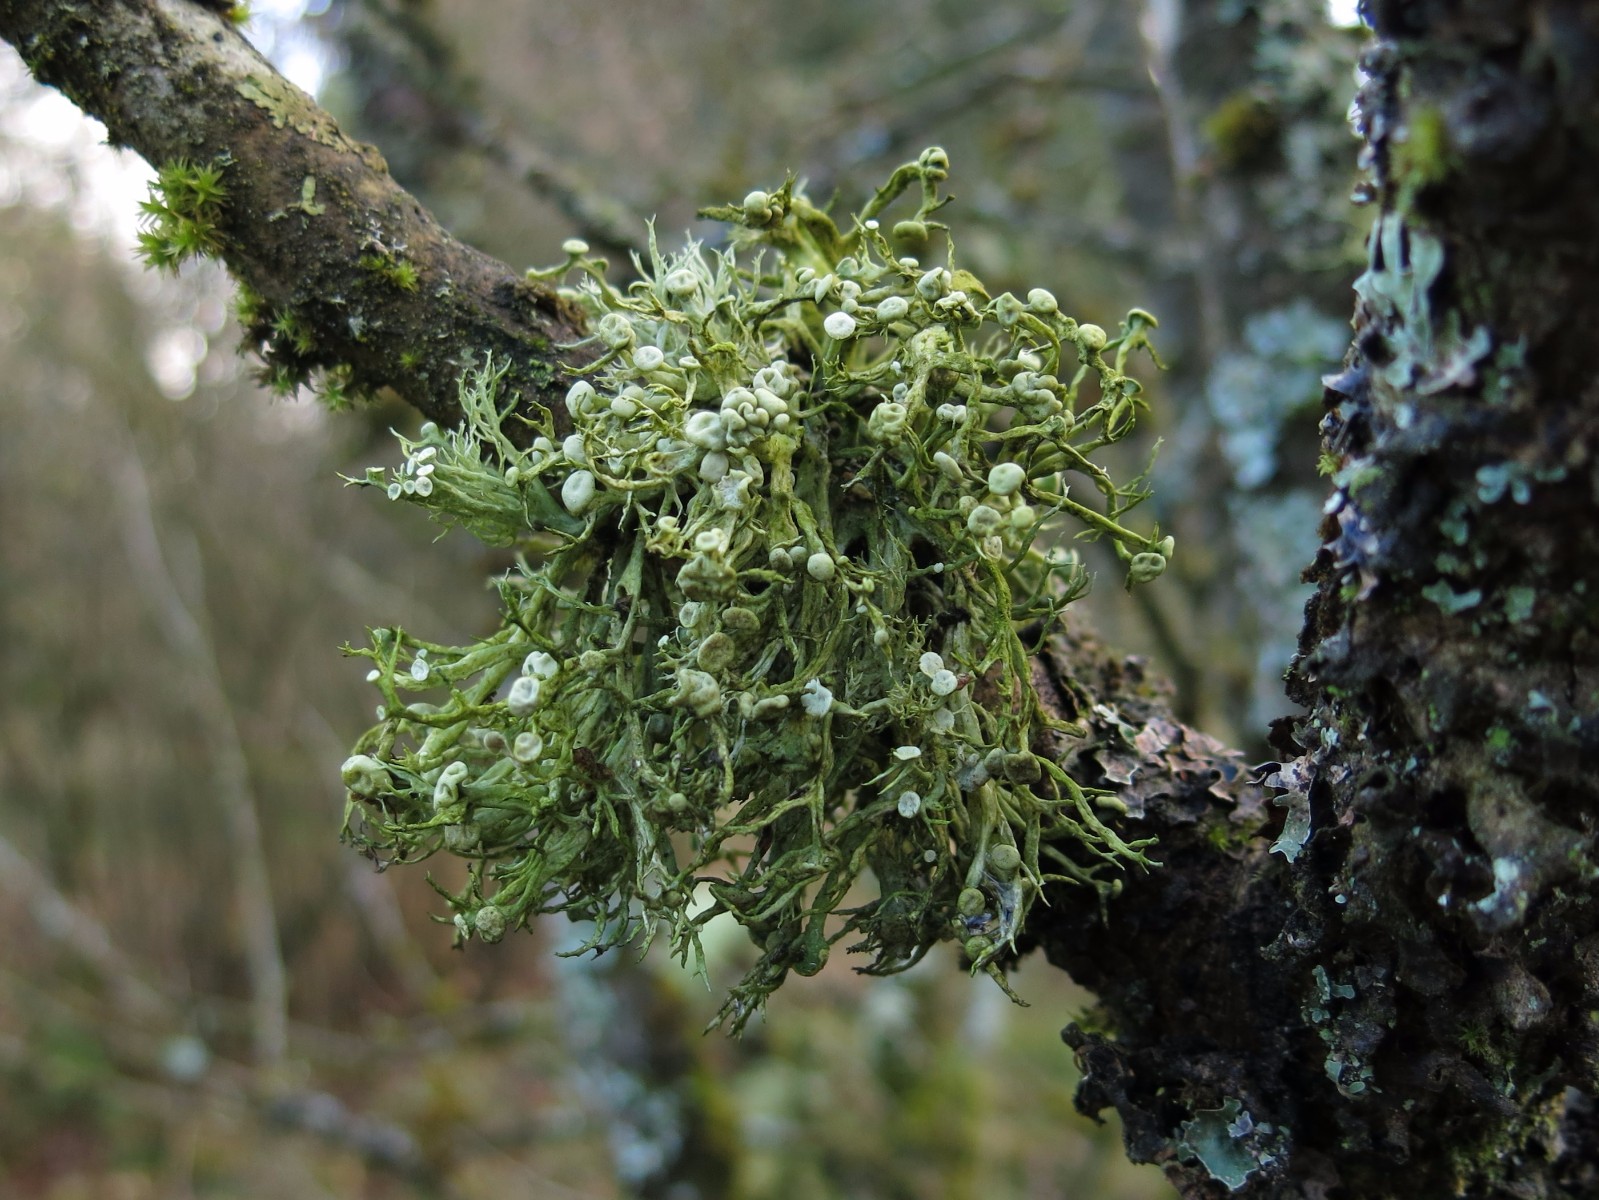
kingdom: Fungi
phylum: Ascomycota
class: Lecanoromycetes
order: Lecanorales
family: Ramalinaceae
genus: Ramalina
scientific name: Ramalina calicaris
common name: rendet grenlav
